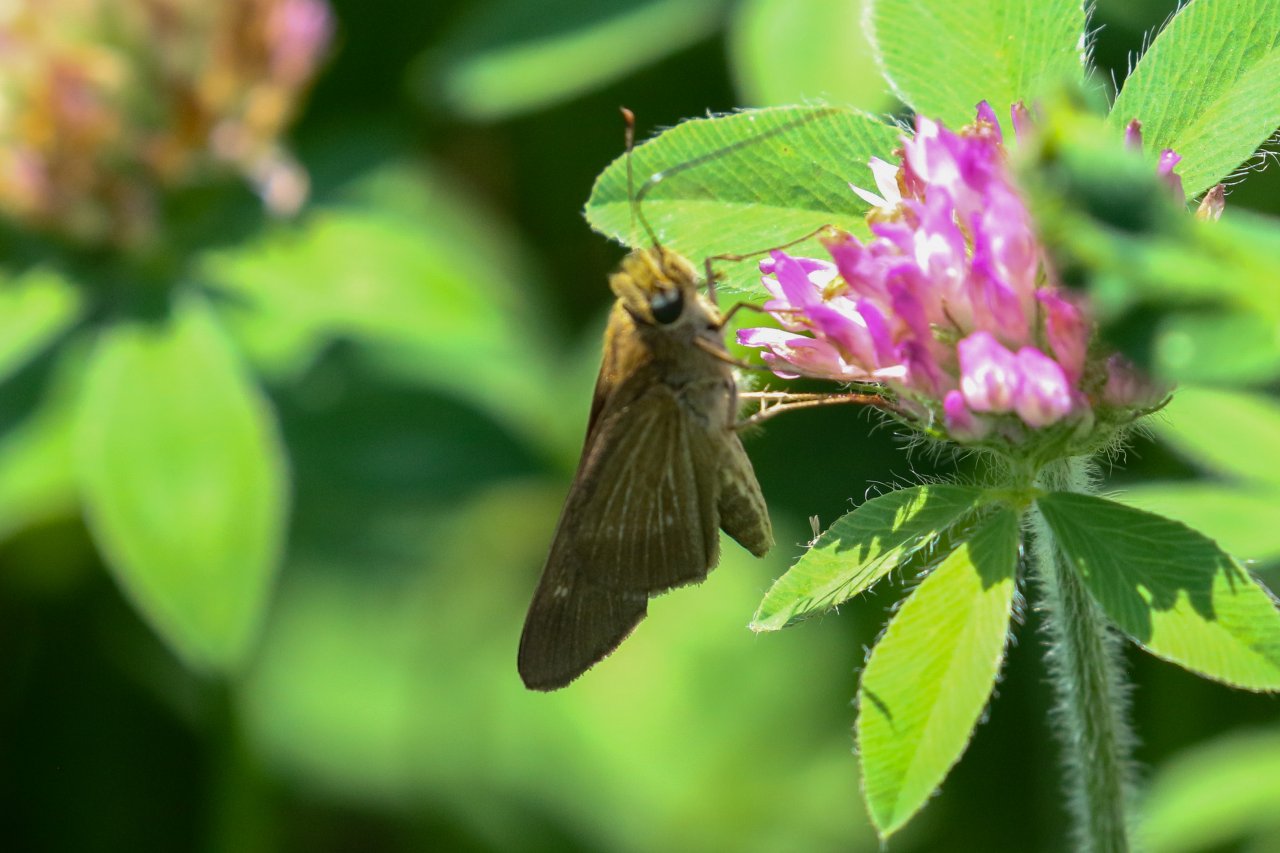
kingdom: Animalia
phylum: Arthropoda
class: Insecta
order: Lepidoptera
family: Hesperiidae
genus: Panoquina
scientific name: Panoquina ocola
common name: Ocola Skipper
